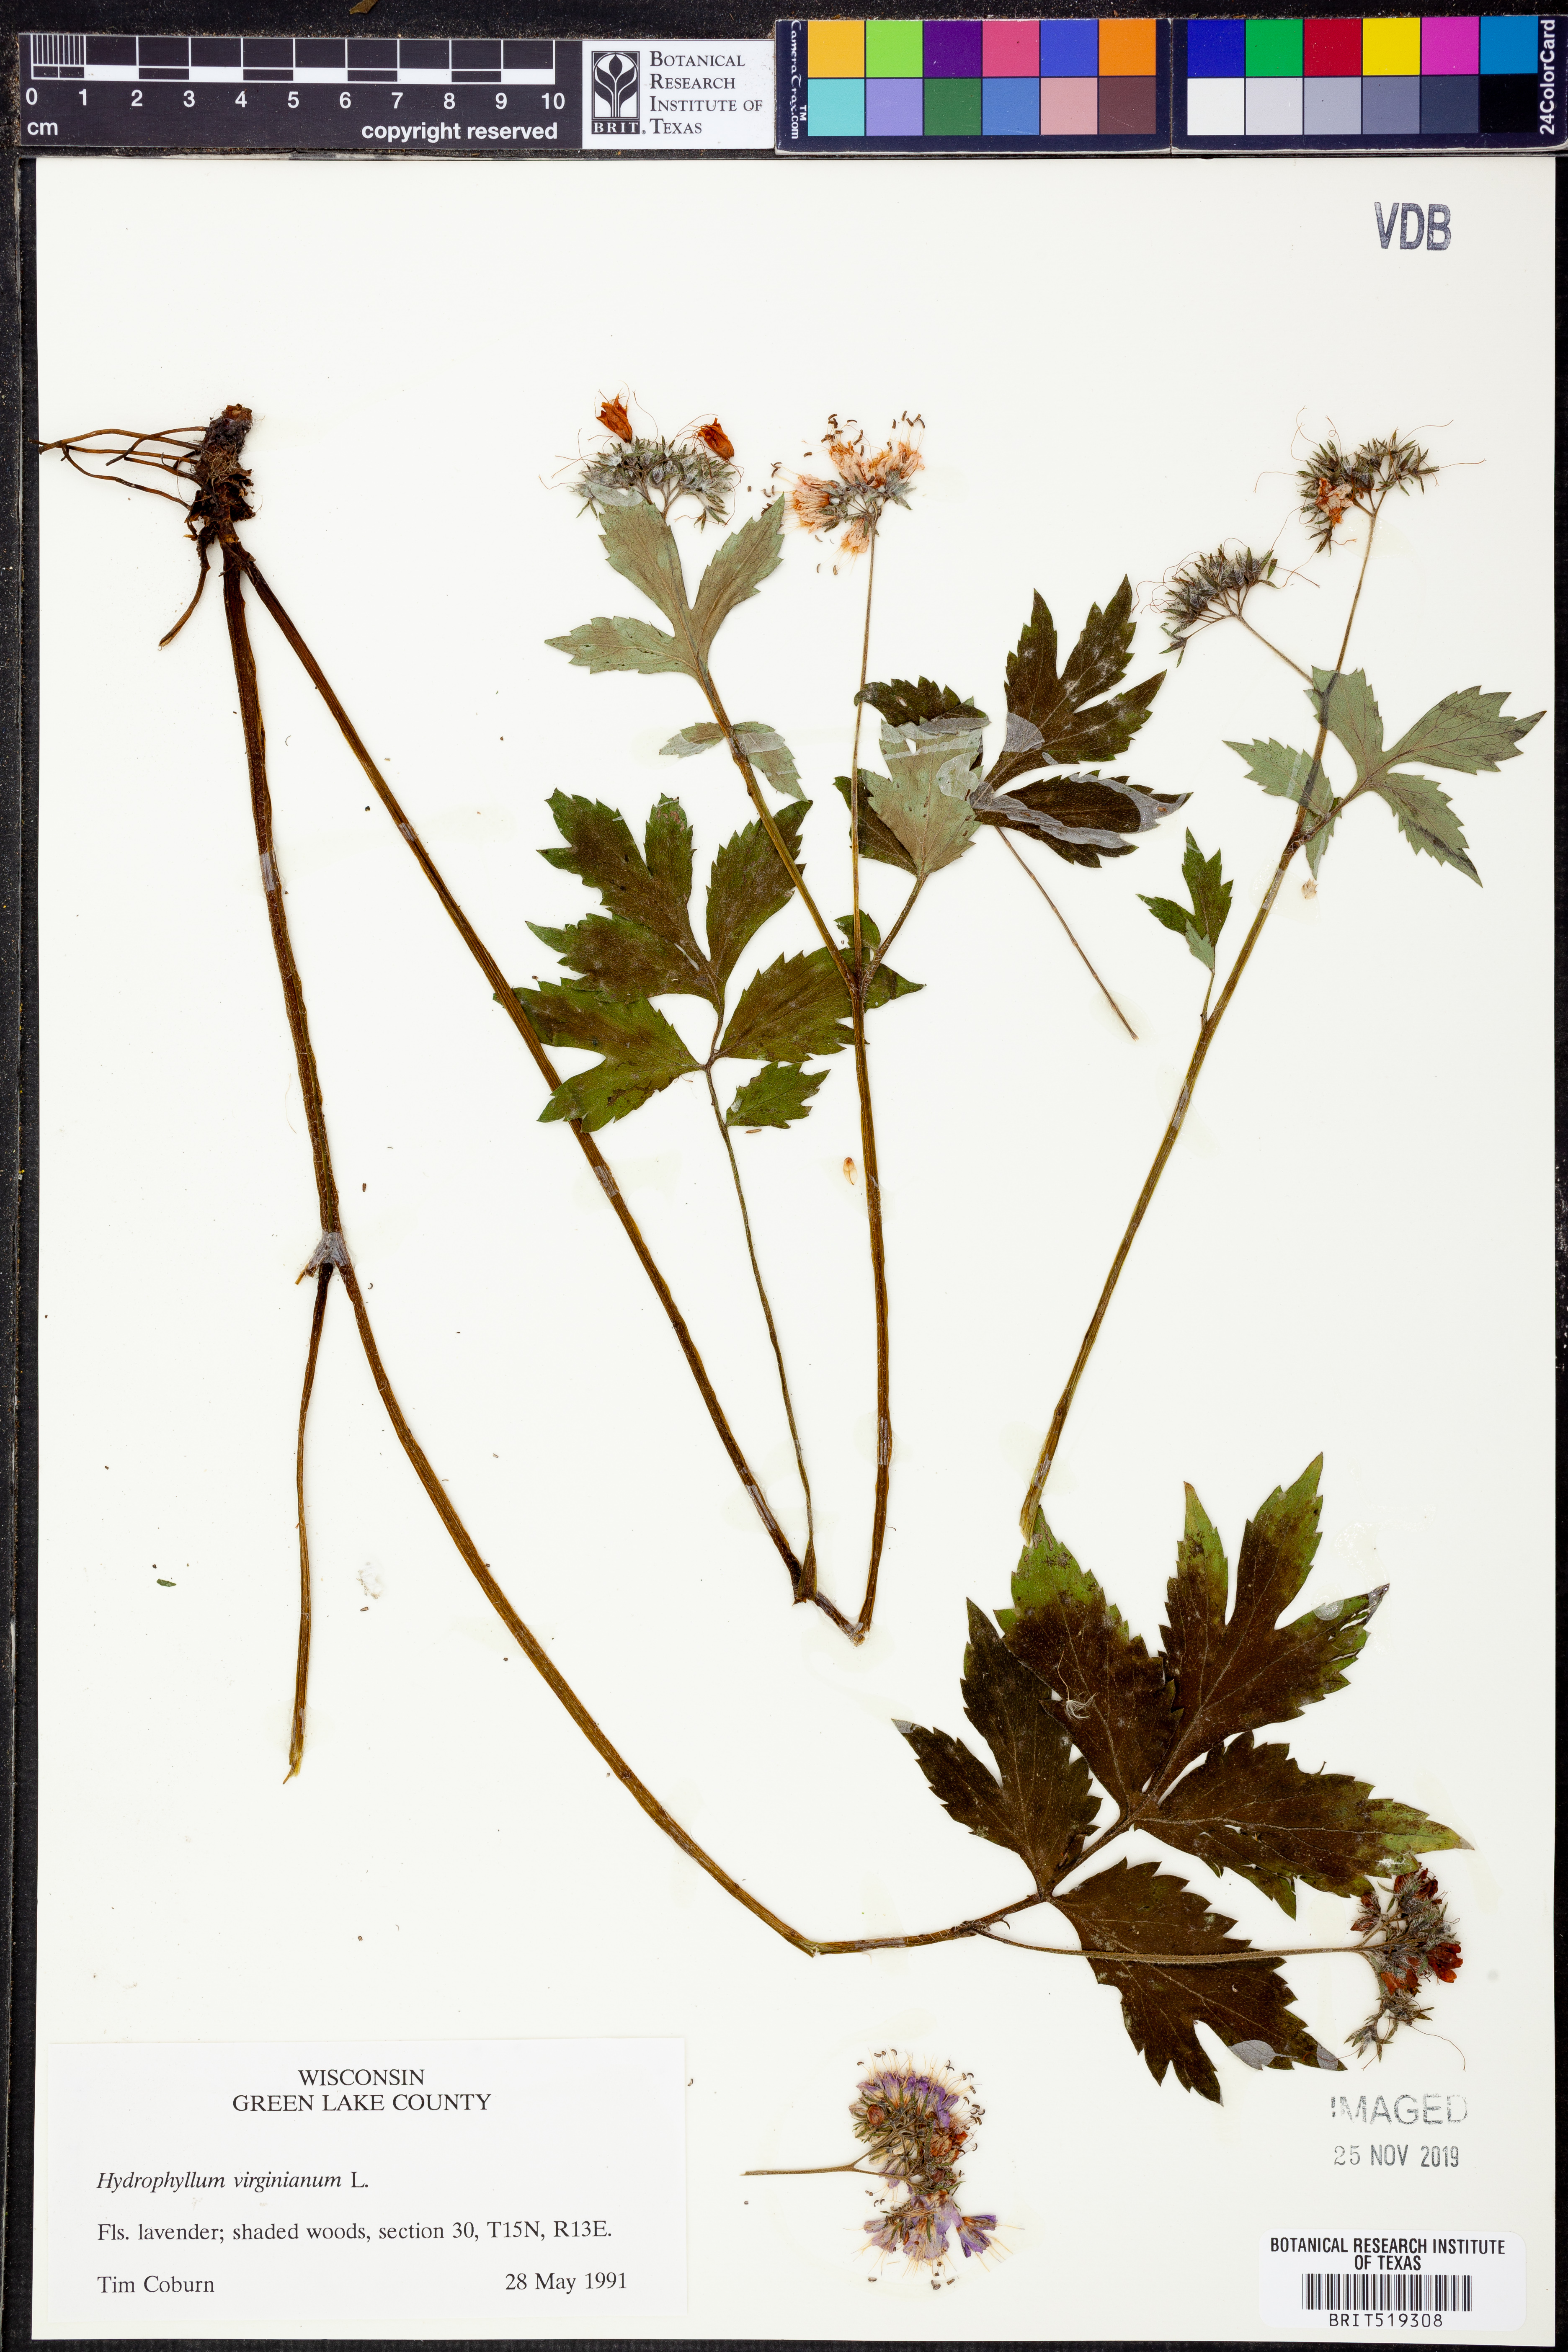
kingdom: Plantae
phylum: Tracheophyta
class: Magnoliopsida
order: Boraginales
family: Hydrophyllaceae
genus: Hydrophyllum
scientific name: Hydrophyllum virginianum
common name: Virginia waterleaf
